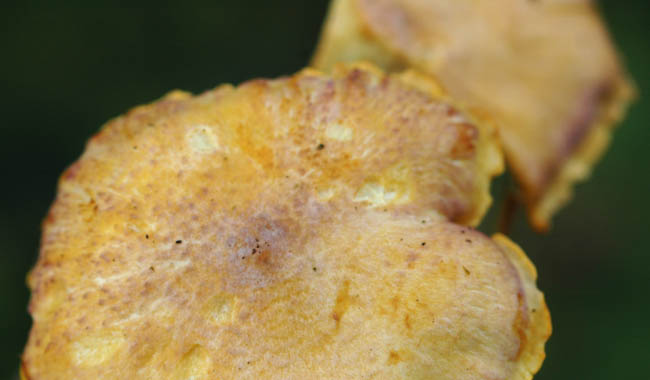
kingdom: Fungi
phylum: Basidiomycota
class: Agaricomycetes
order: Cantharellales
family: Hydnaceae
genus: Cantharellus
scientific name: Cantharellus amethysteus
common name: ametyst-kantarel
